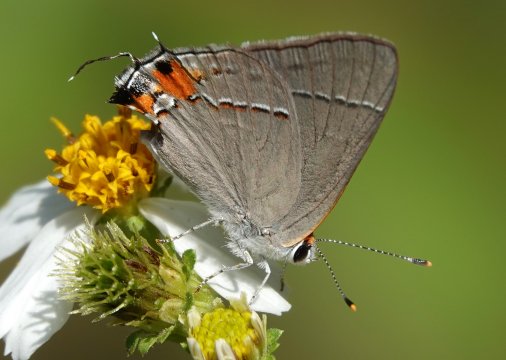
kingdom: Animalia
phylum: Arthropoda
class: Insecta
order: Lepidoptera
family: Lycaenidae
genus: Strymon
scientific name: Strymon melinus
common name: Gray Hairstreak
